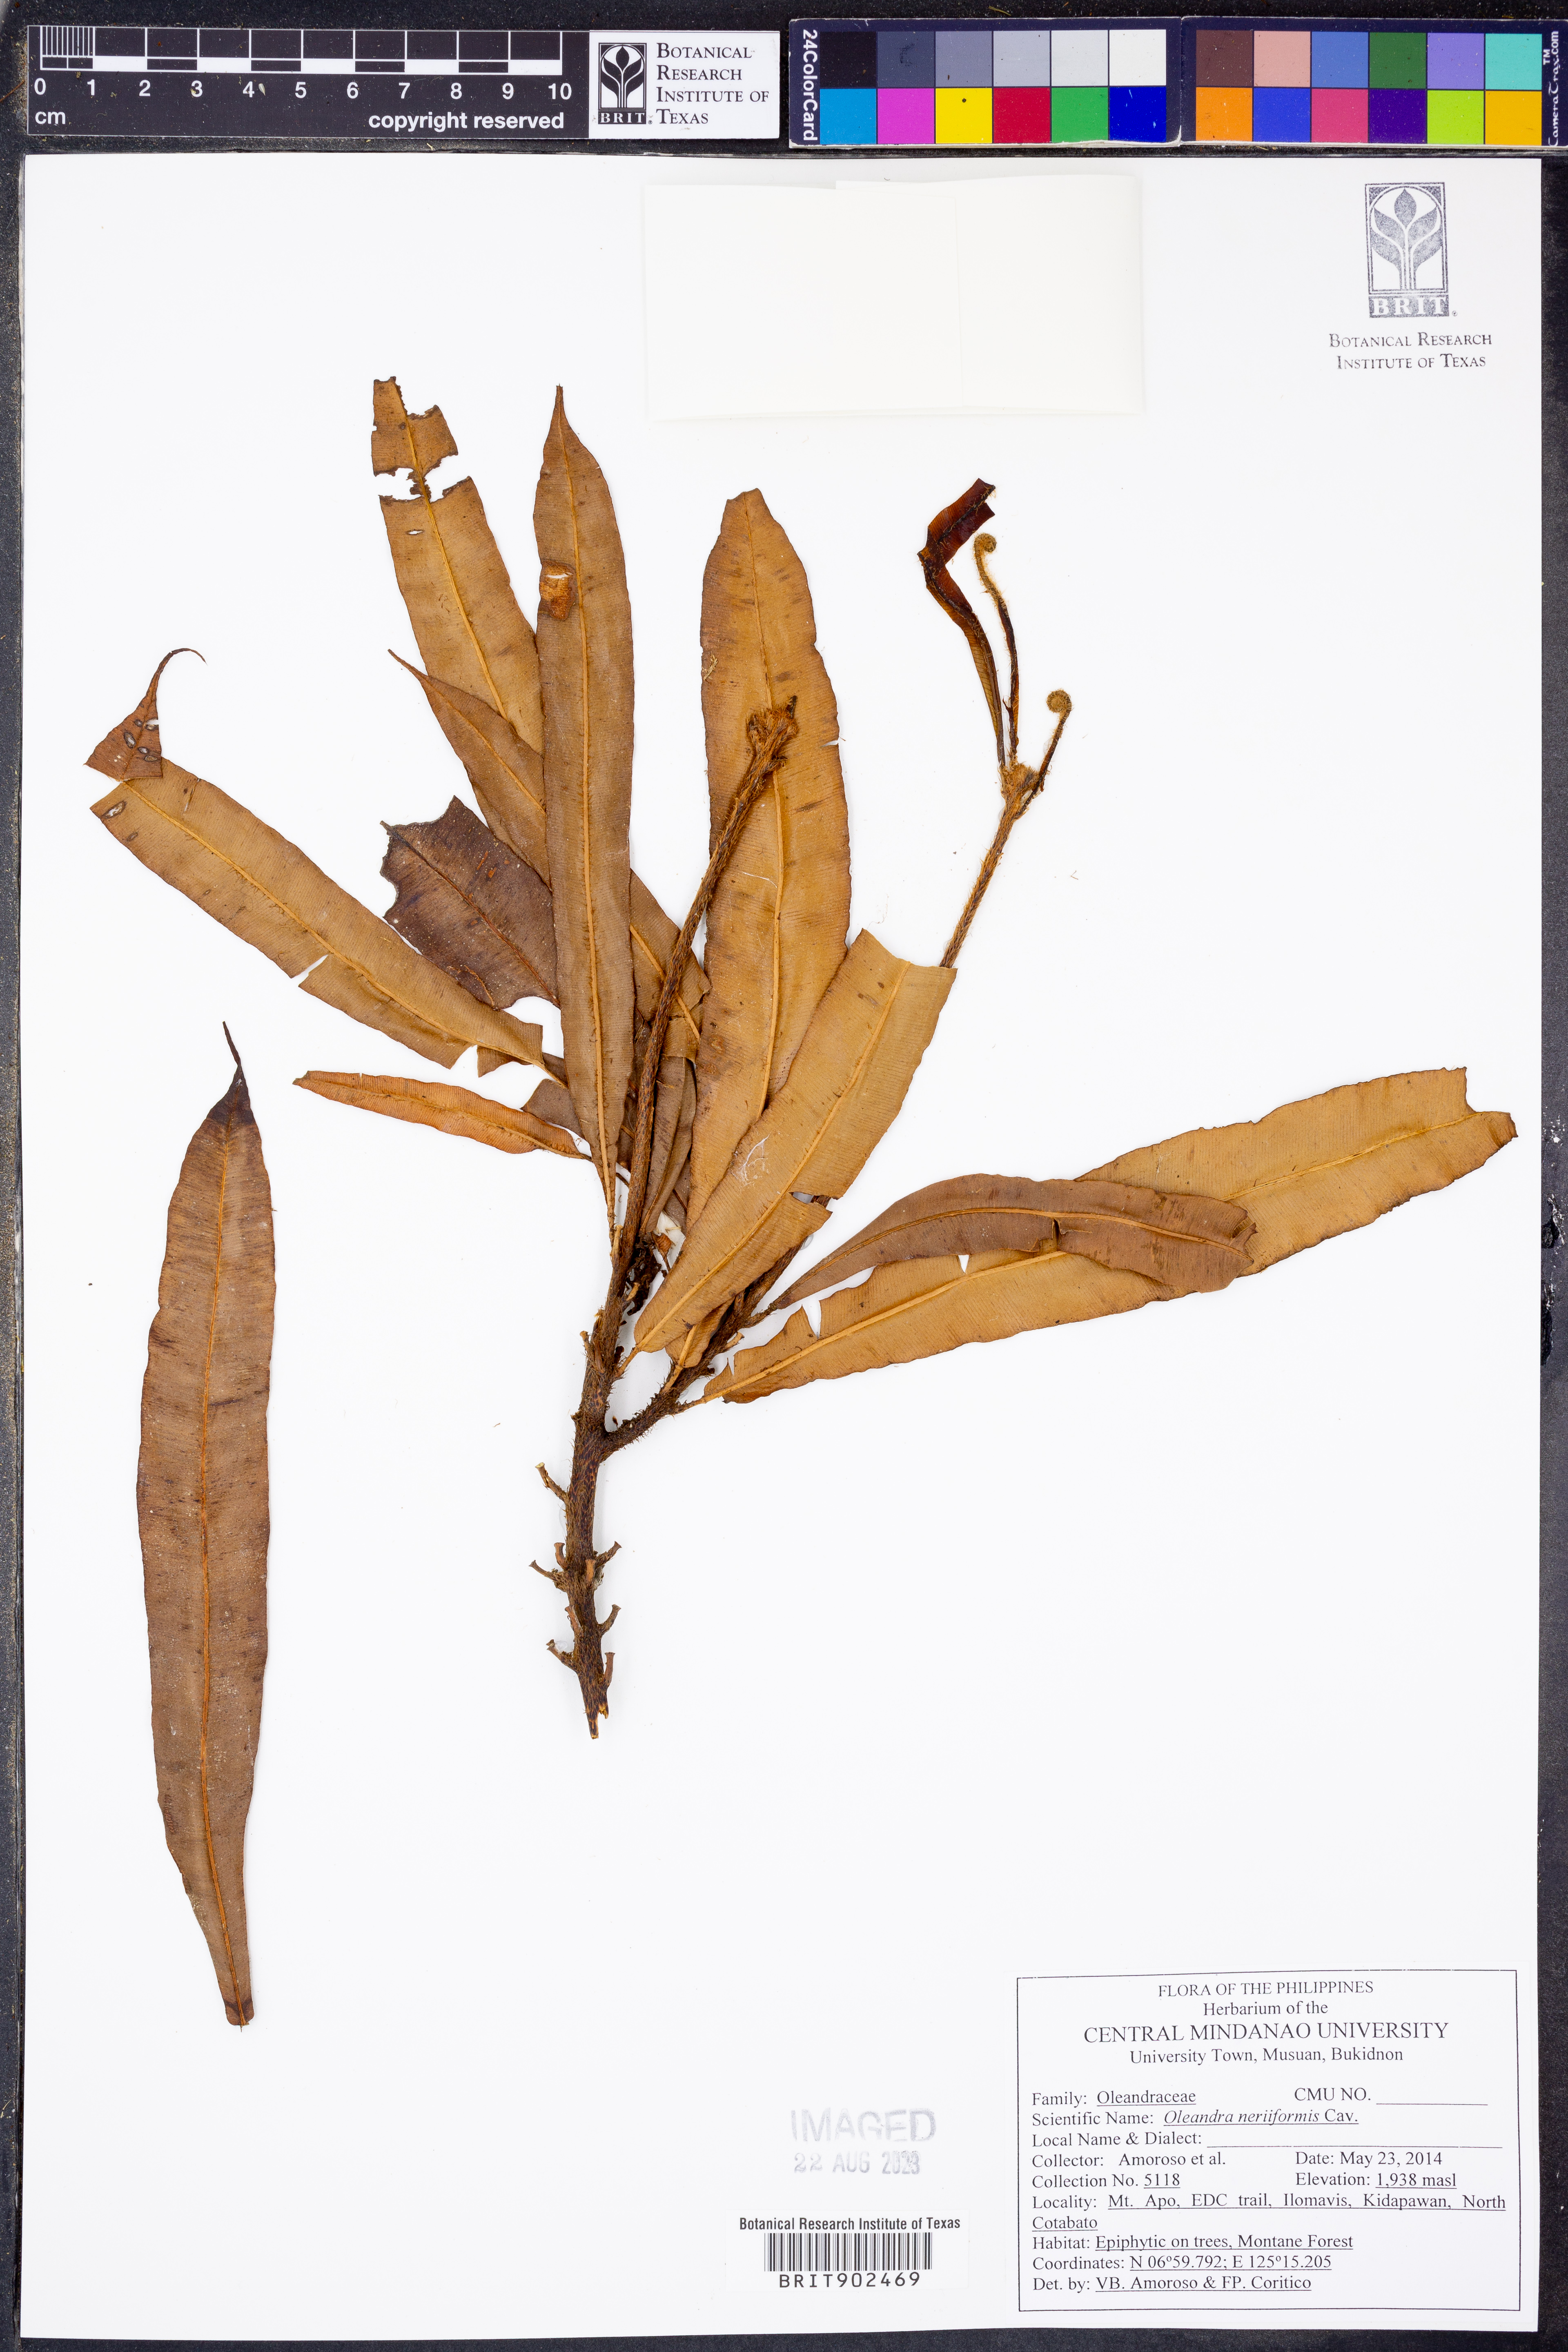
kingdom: Plantae
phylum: Tracheophyta
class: Polypodiopsida
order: Polypodiales
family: Oleandraceae
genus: Oleandra
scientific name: Oleandra neriiformis
